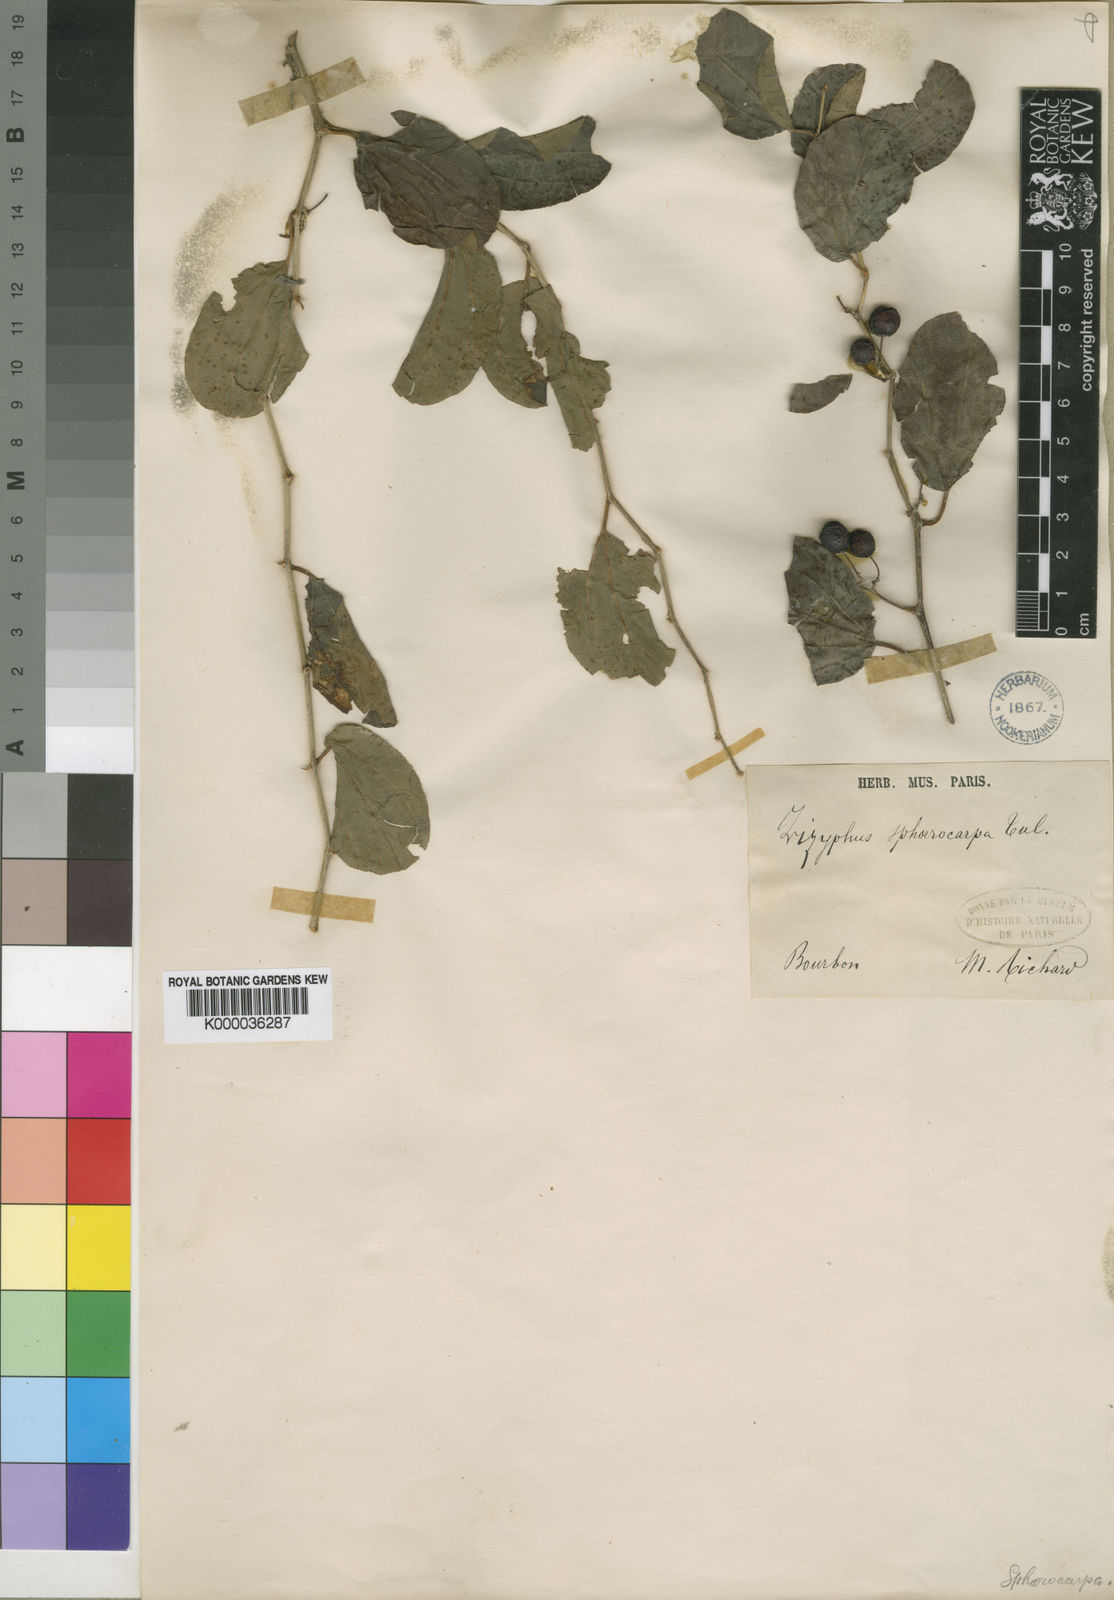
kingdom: Plantae
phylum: Tracheophyta
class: Magnoliopsida
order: Rosales
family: Rhamnaceae
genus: Ziziphus
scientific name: Ziziphus spina-christi
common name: Syrian christ-thorn
